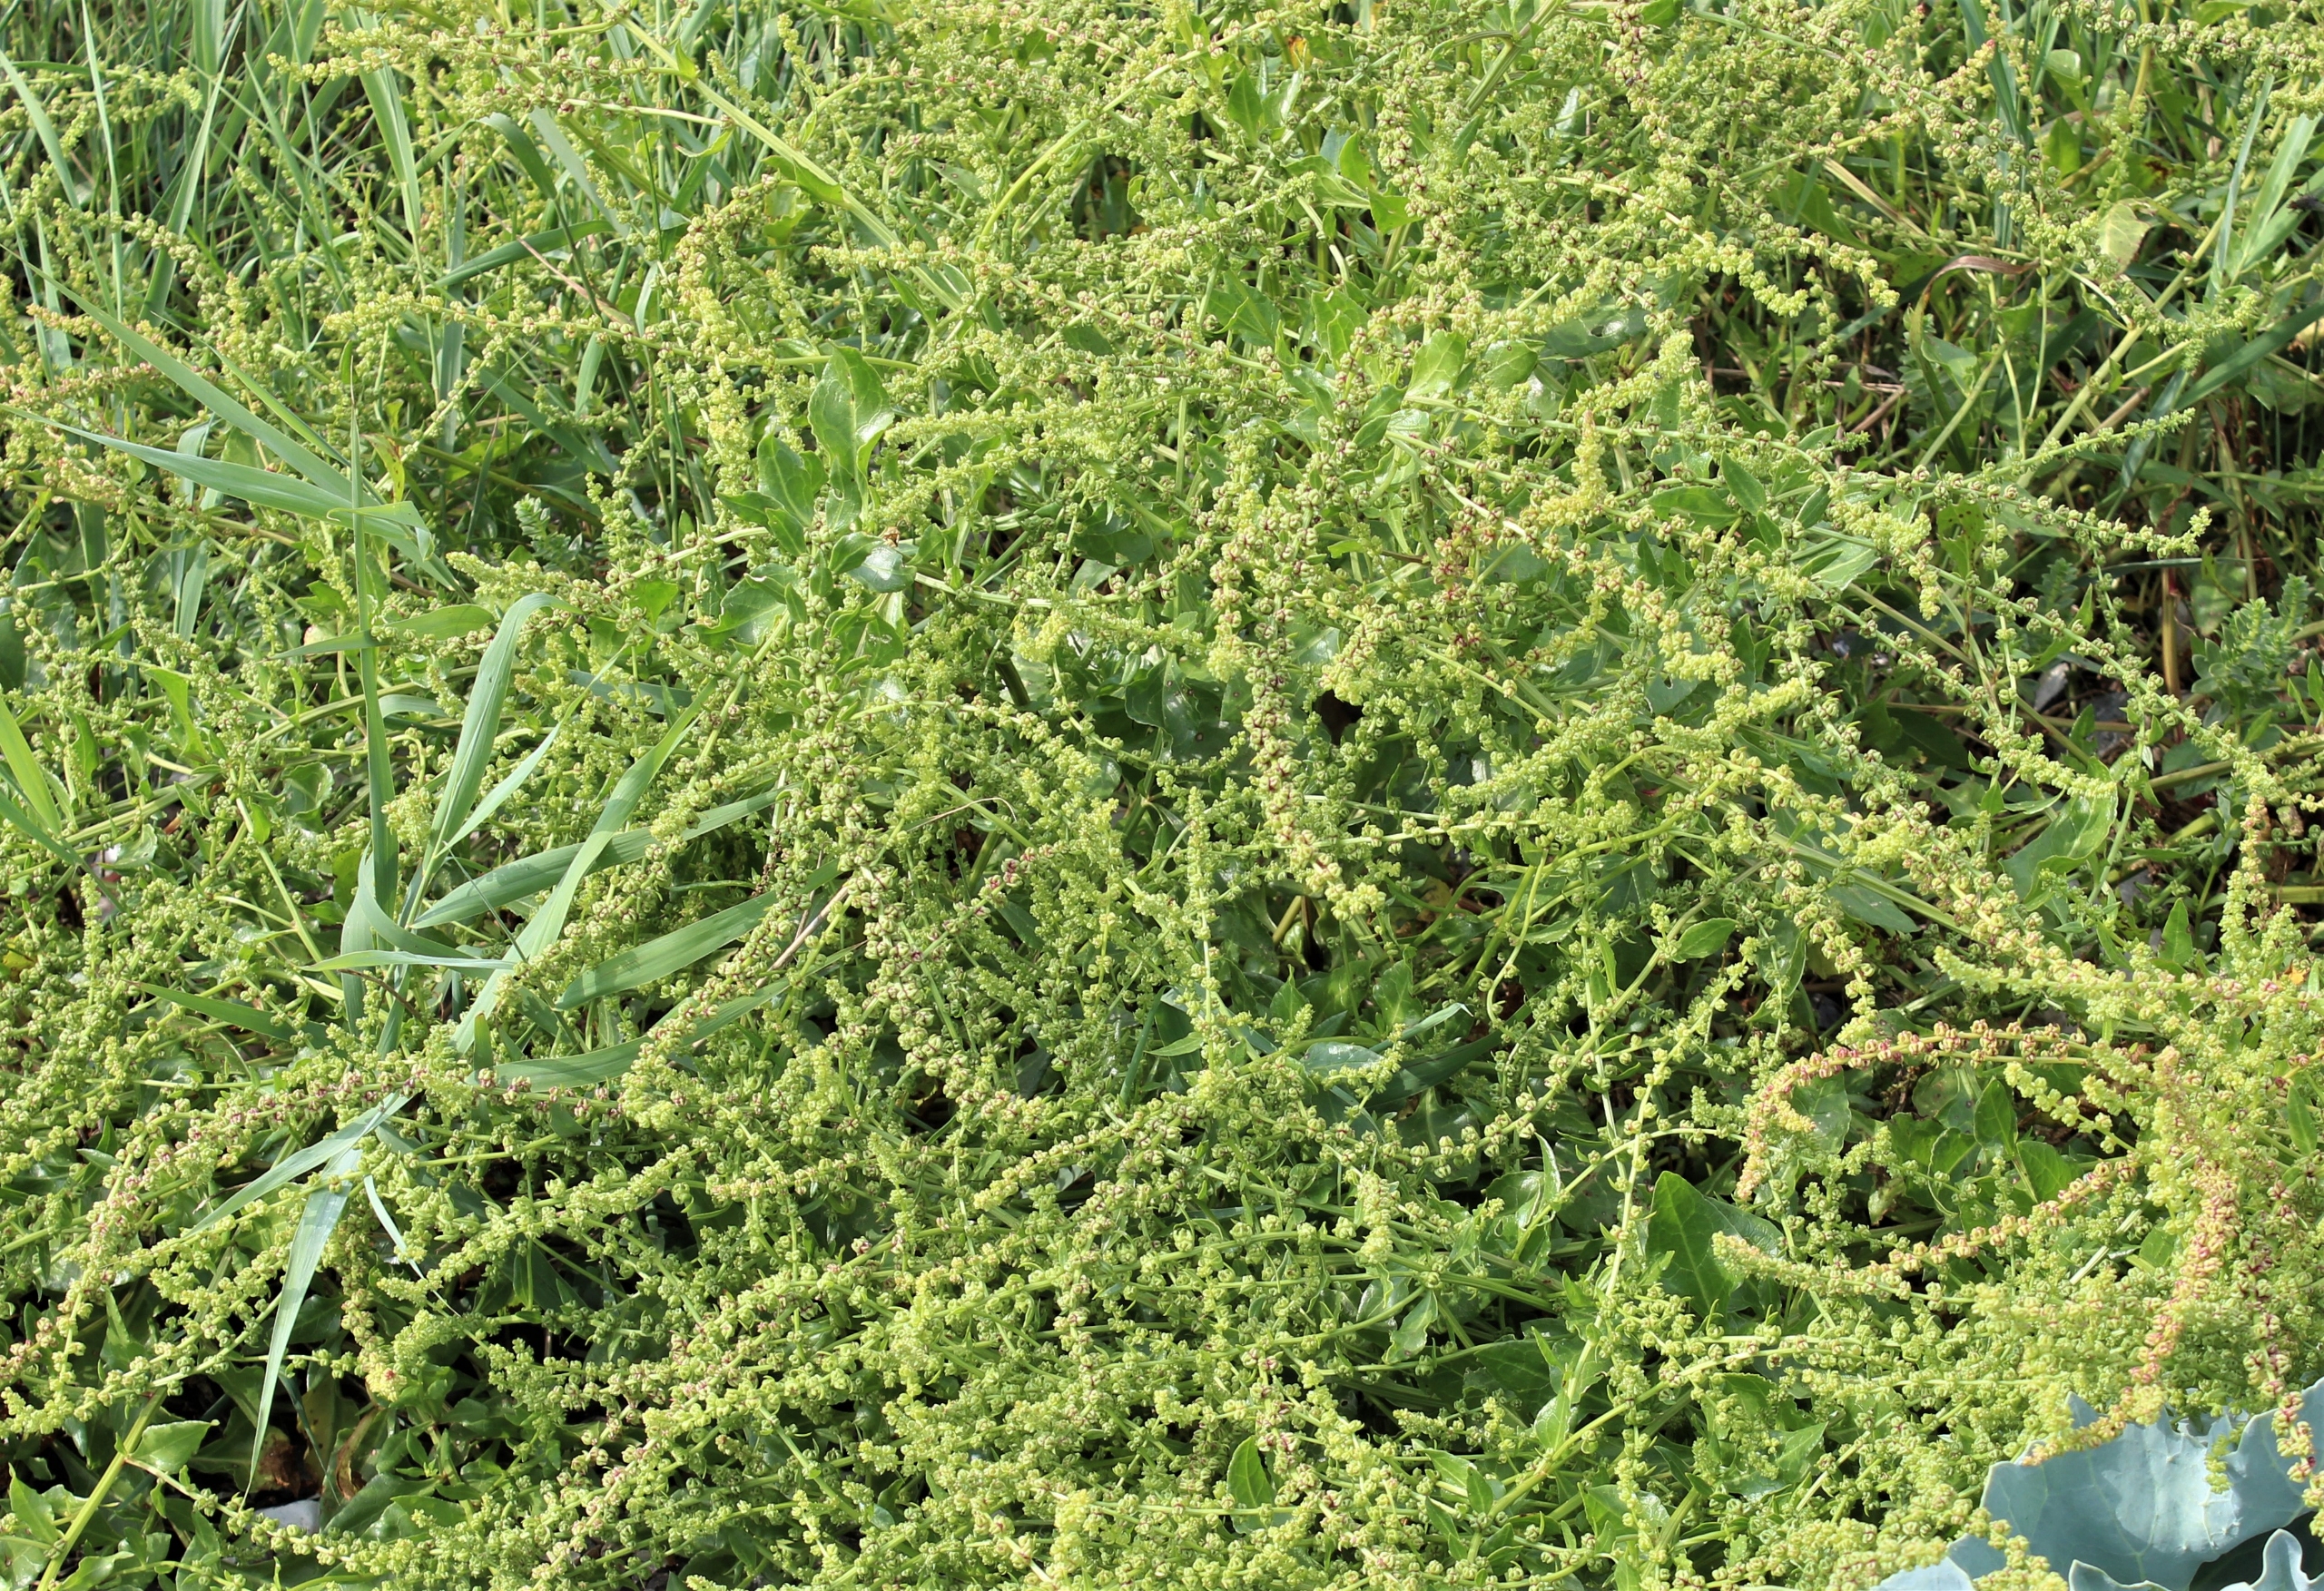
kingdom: Plantae
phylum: Tracheophyta
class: Magnoliopsida
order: Caryophyllales
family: Amaranthaceae
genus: Beta
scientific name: Beta vulgaris
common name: Bede
